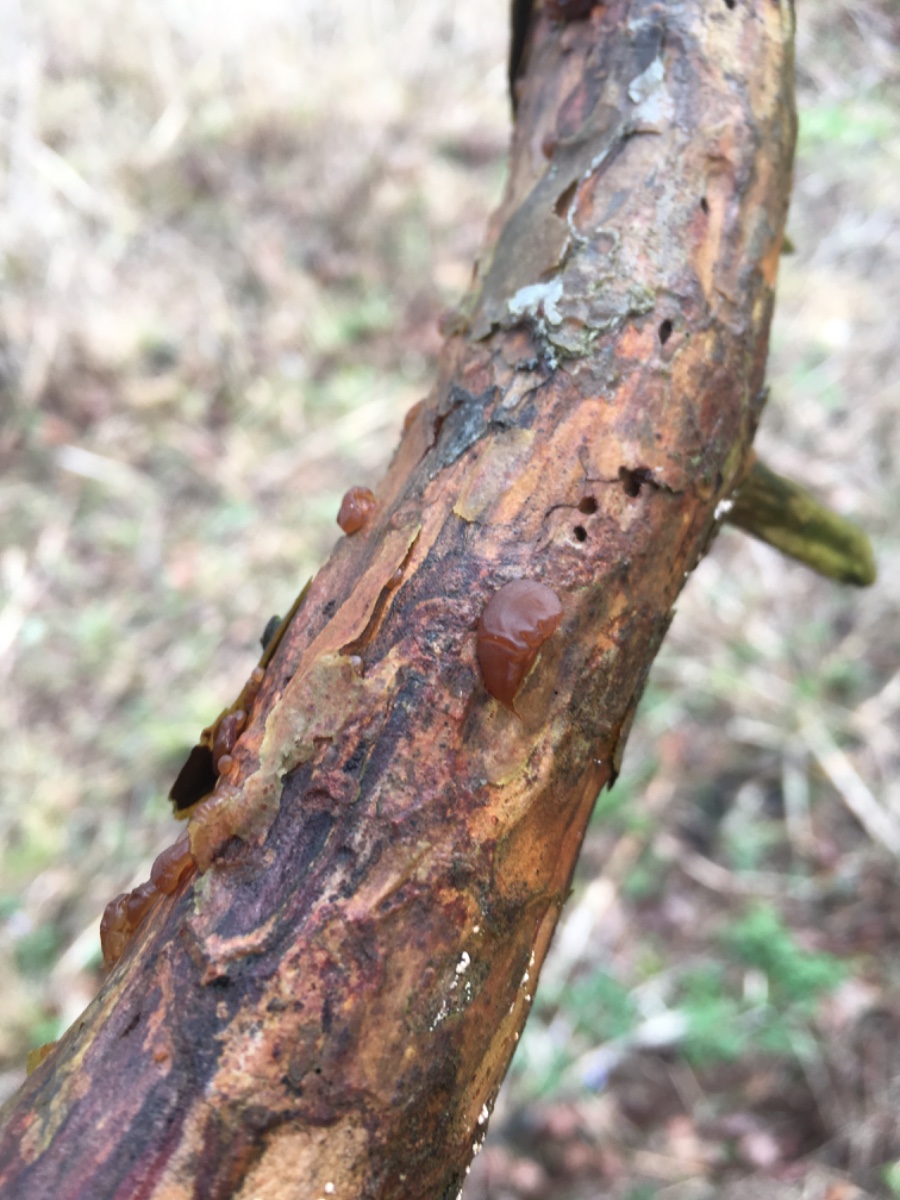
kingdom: Fungi
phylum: Basidiomycota
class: Agaricomycetes
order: Auriculariales
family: Auriculariaceae
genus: Exidia
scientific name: Exidia saccharina
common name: kandis-bævretop
